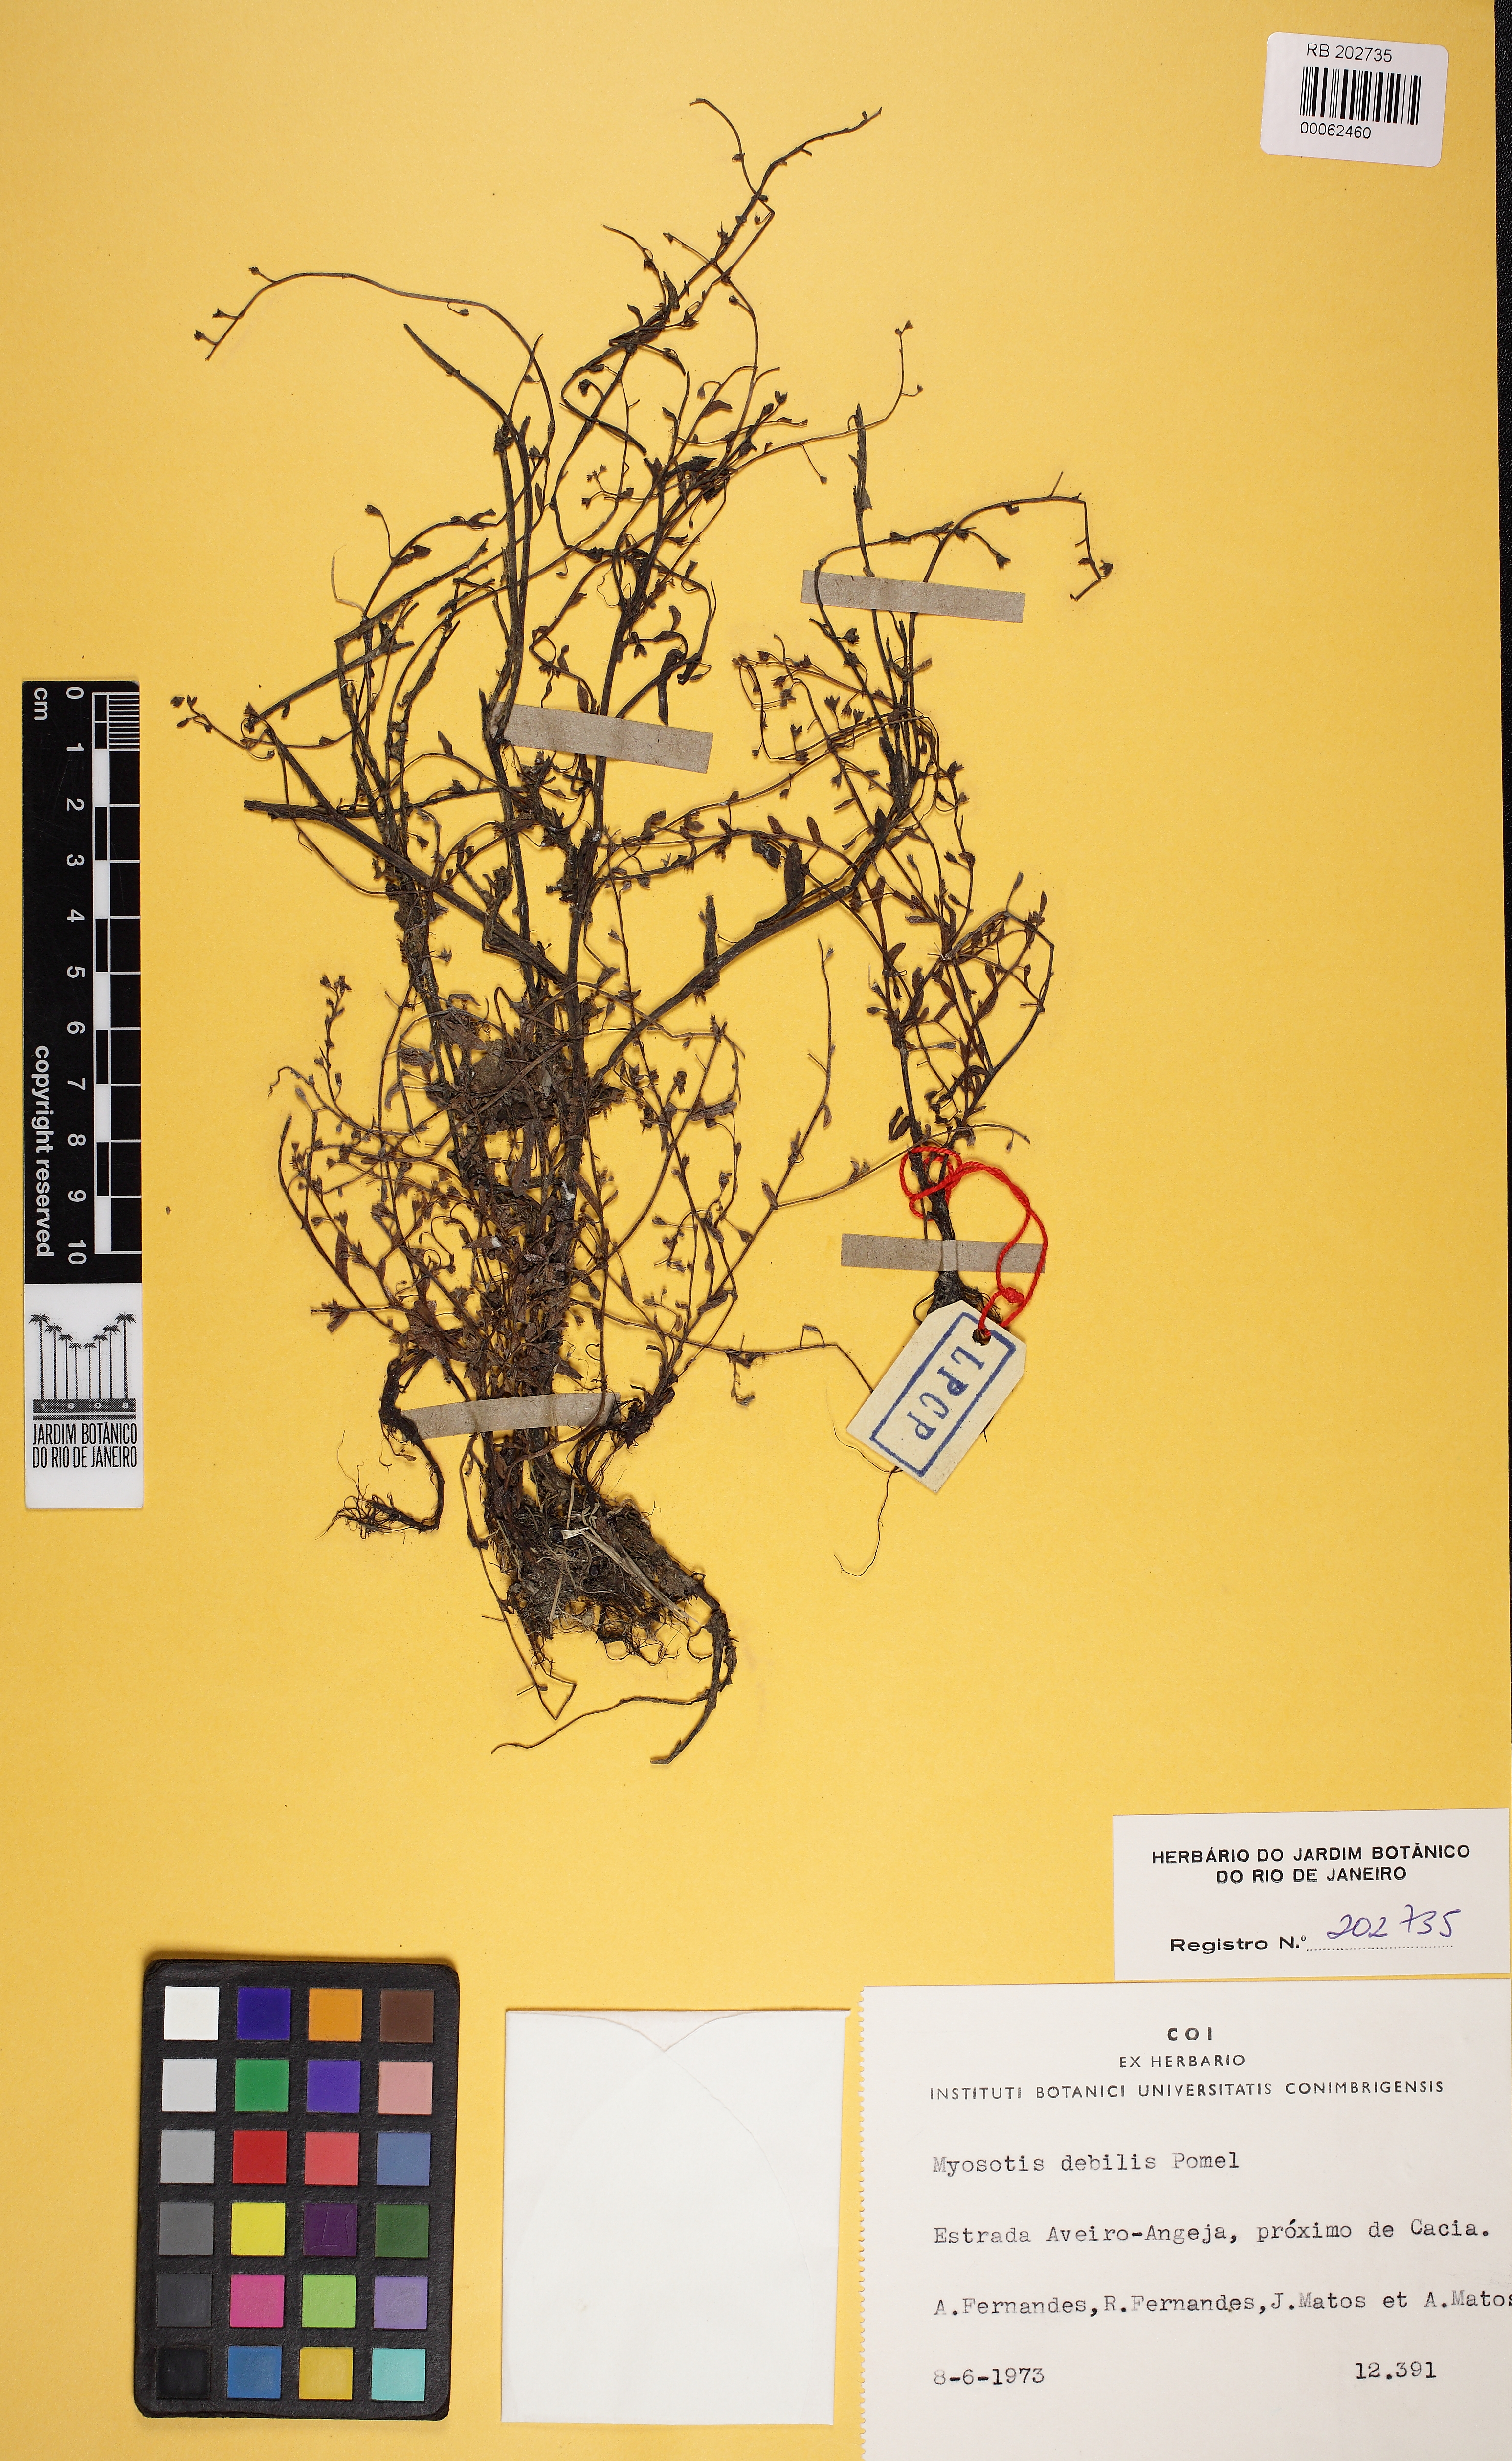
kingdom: Plantae
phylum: Tracheophyta
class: Magnoliopsida
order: Boraginales
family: Boraginaceae
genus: Myosotis
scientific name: Myosotis debilis
